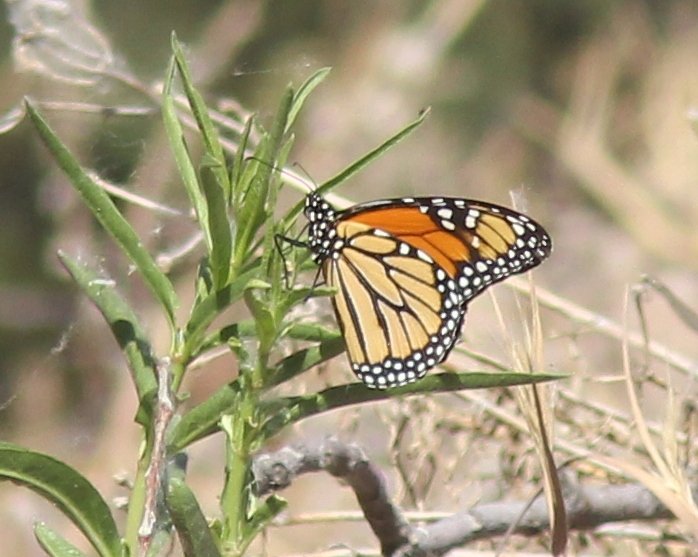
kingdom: Animalia
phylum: Arthropoda
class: Insecta
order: Lepidoptera
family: Nymphalidae
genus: Danaus
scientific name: Danaus plexippus
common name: Monarch
